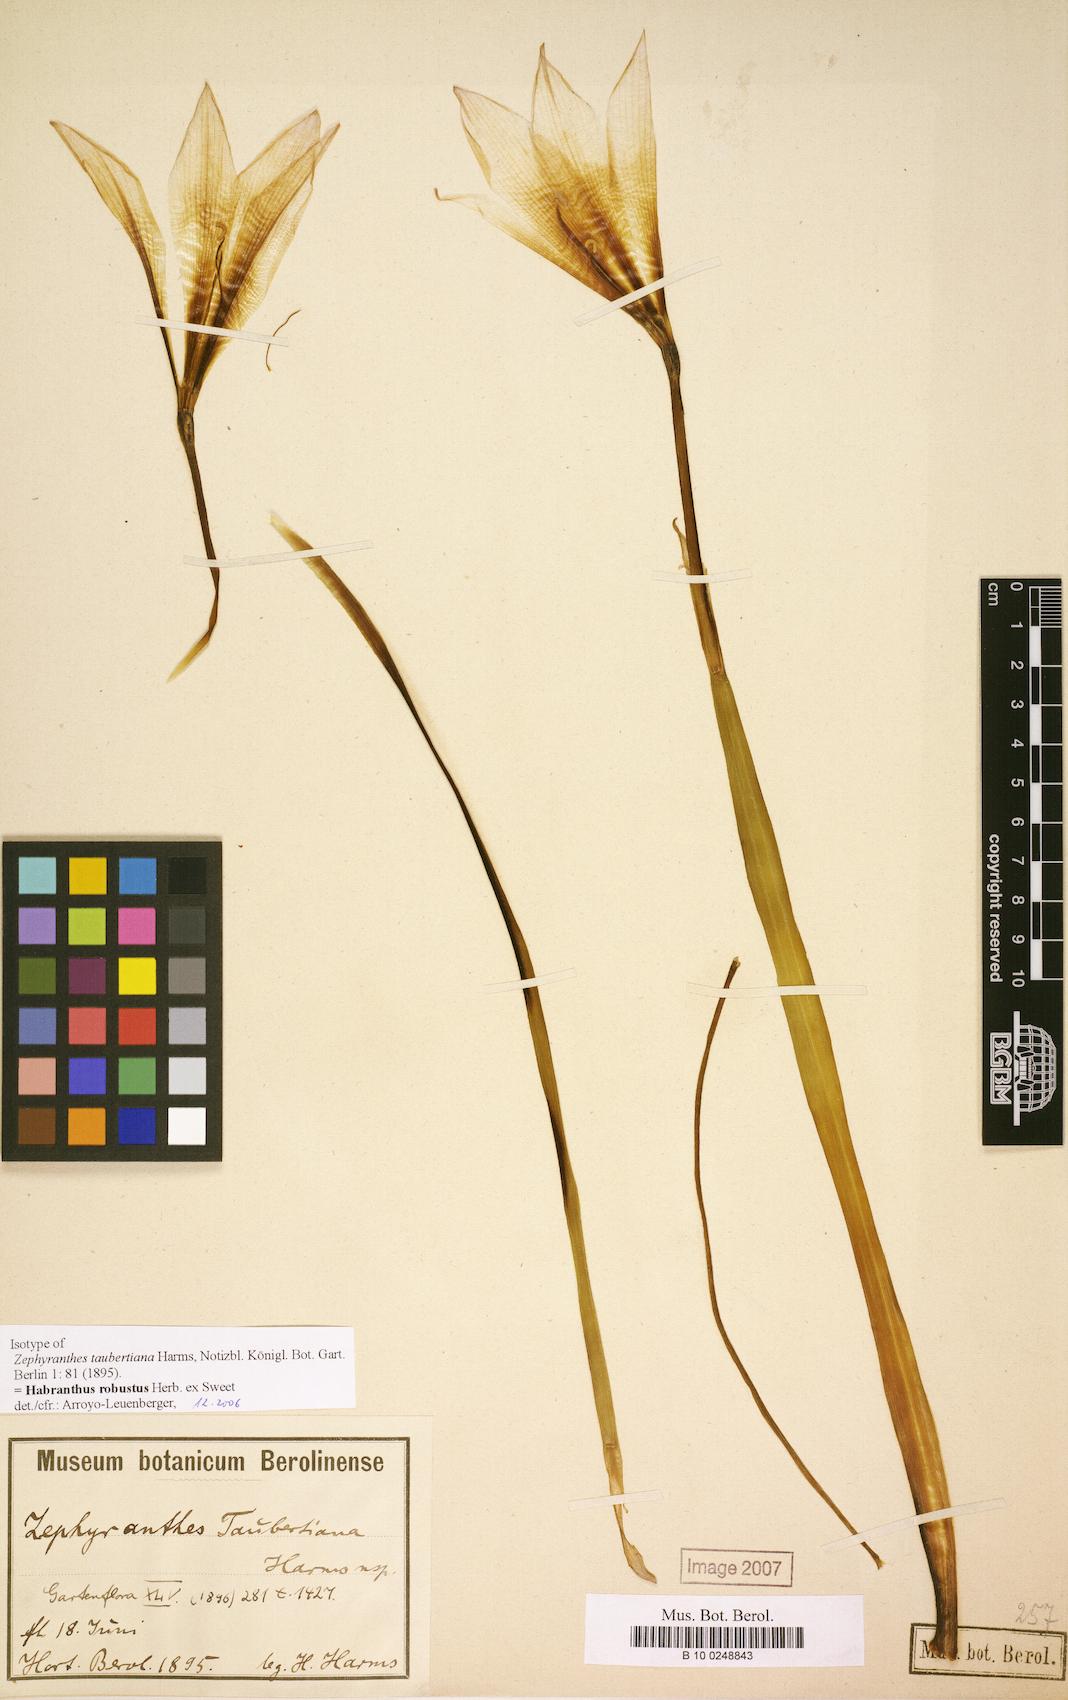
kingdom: Plantae
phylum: Tracheophyta
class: Liliopsida
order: Asparagales
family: Amaryllidaceae
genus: Zephyranthes
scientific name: Zephyranthes robusta
